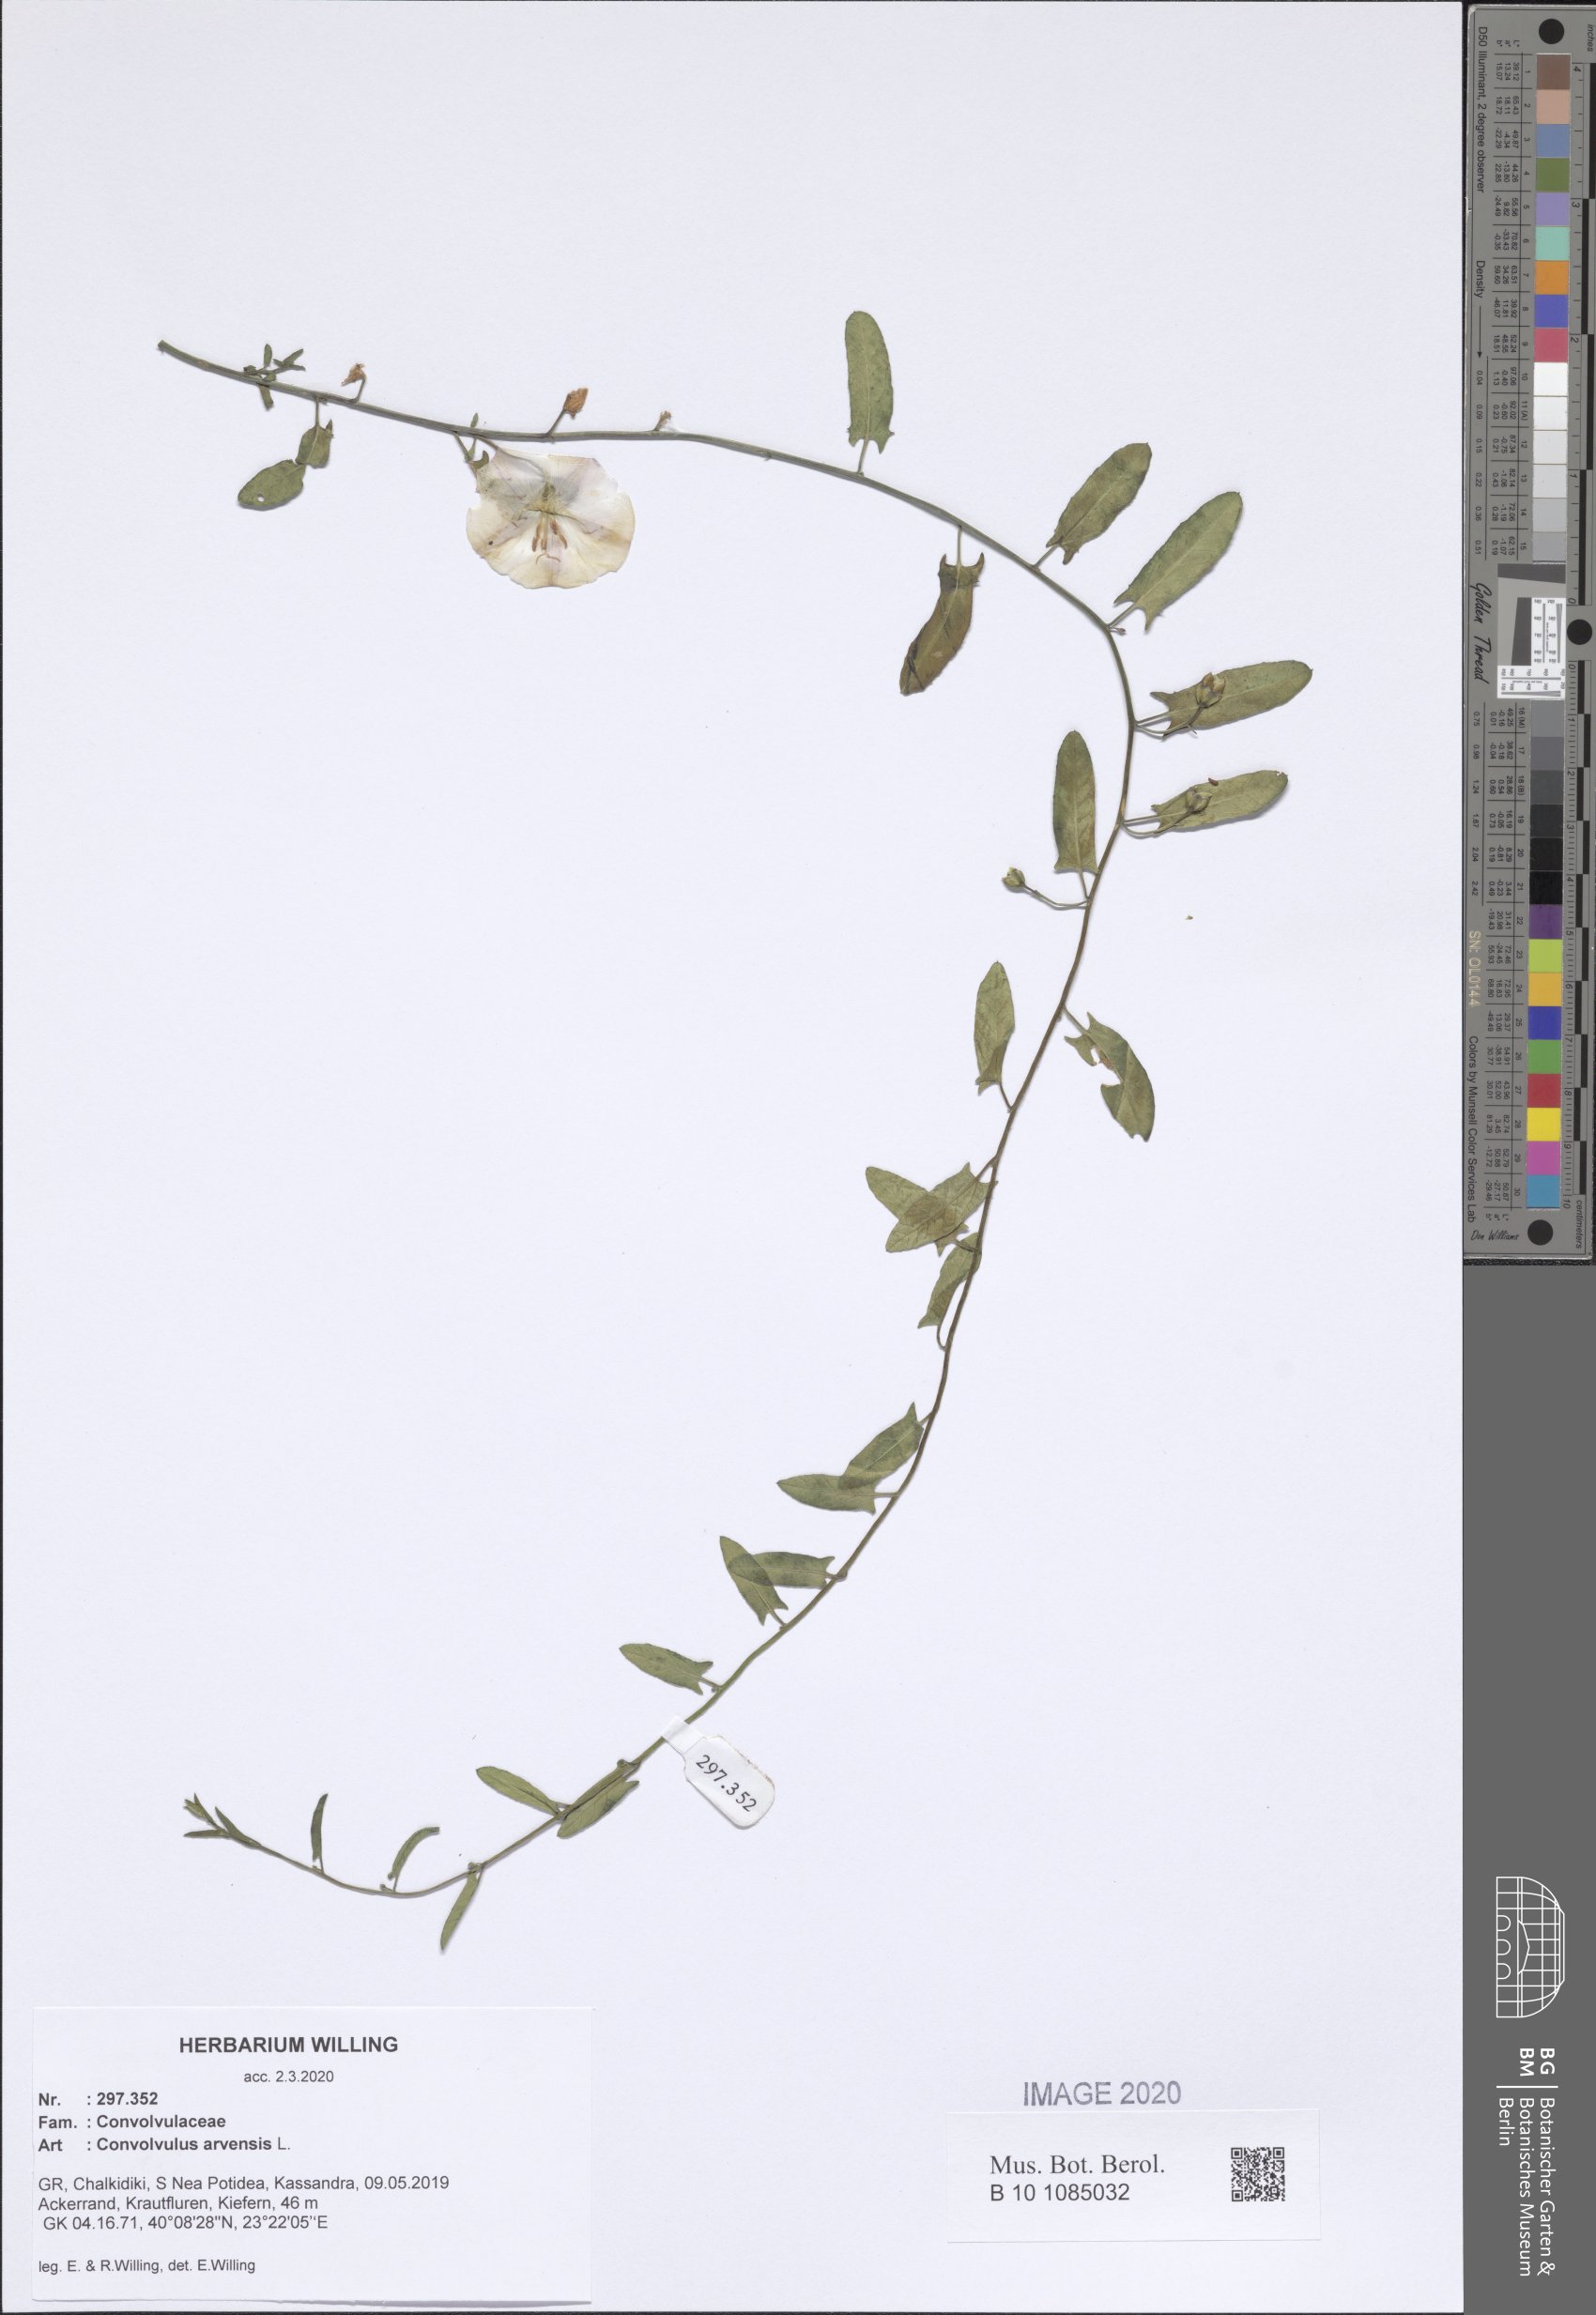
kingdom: Plantae
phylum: Tracheophyta
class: Magnoliopsida
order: Solanales
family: Convolvulaceae
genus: Convolvulus
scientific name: Convolvulus arvensis
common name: Field bindweed
